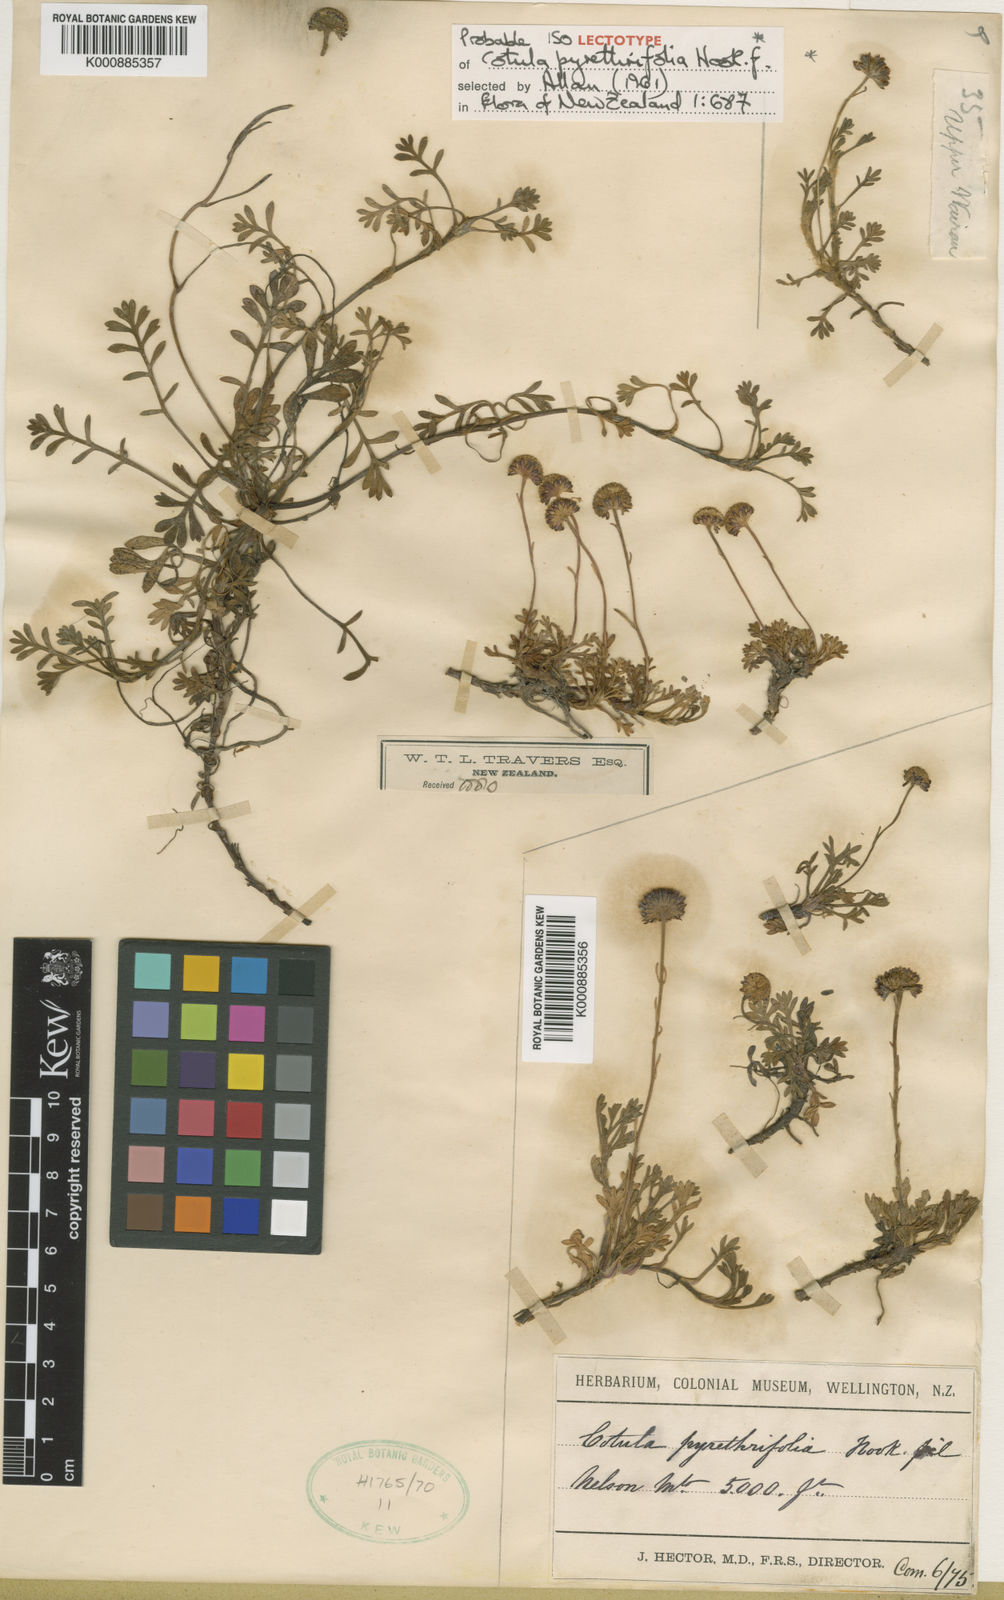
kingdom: Plantae
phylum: Tracheophyta
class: Magnoliopsida
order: Asterales
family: Asteraceae
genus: Leptinella
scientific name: Leptinella
